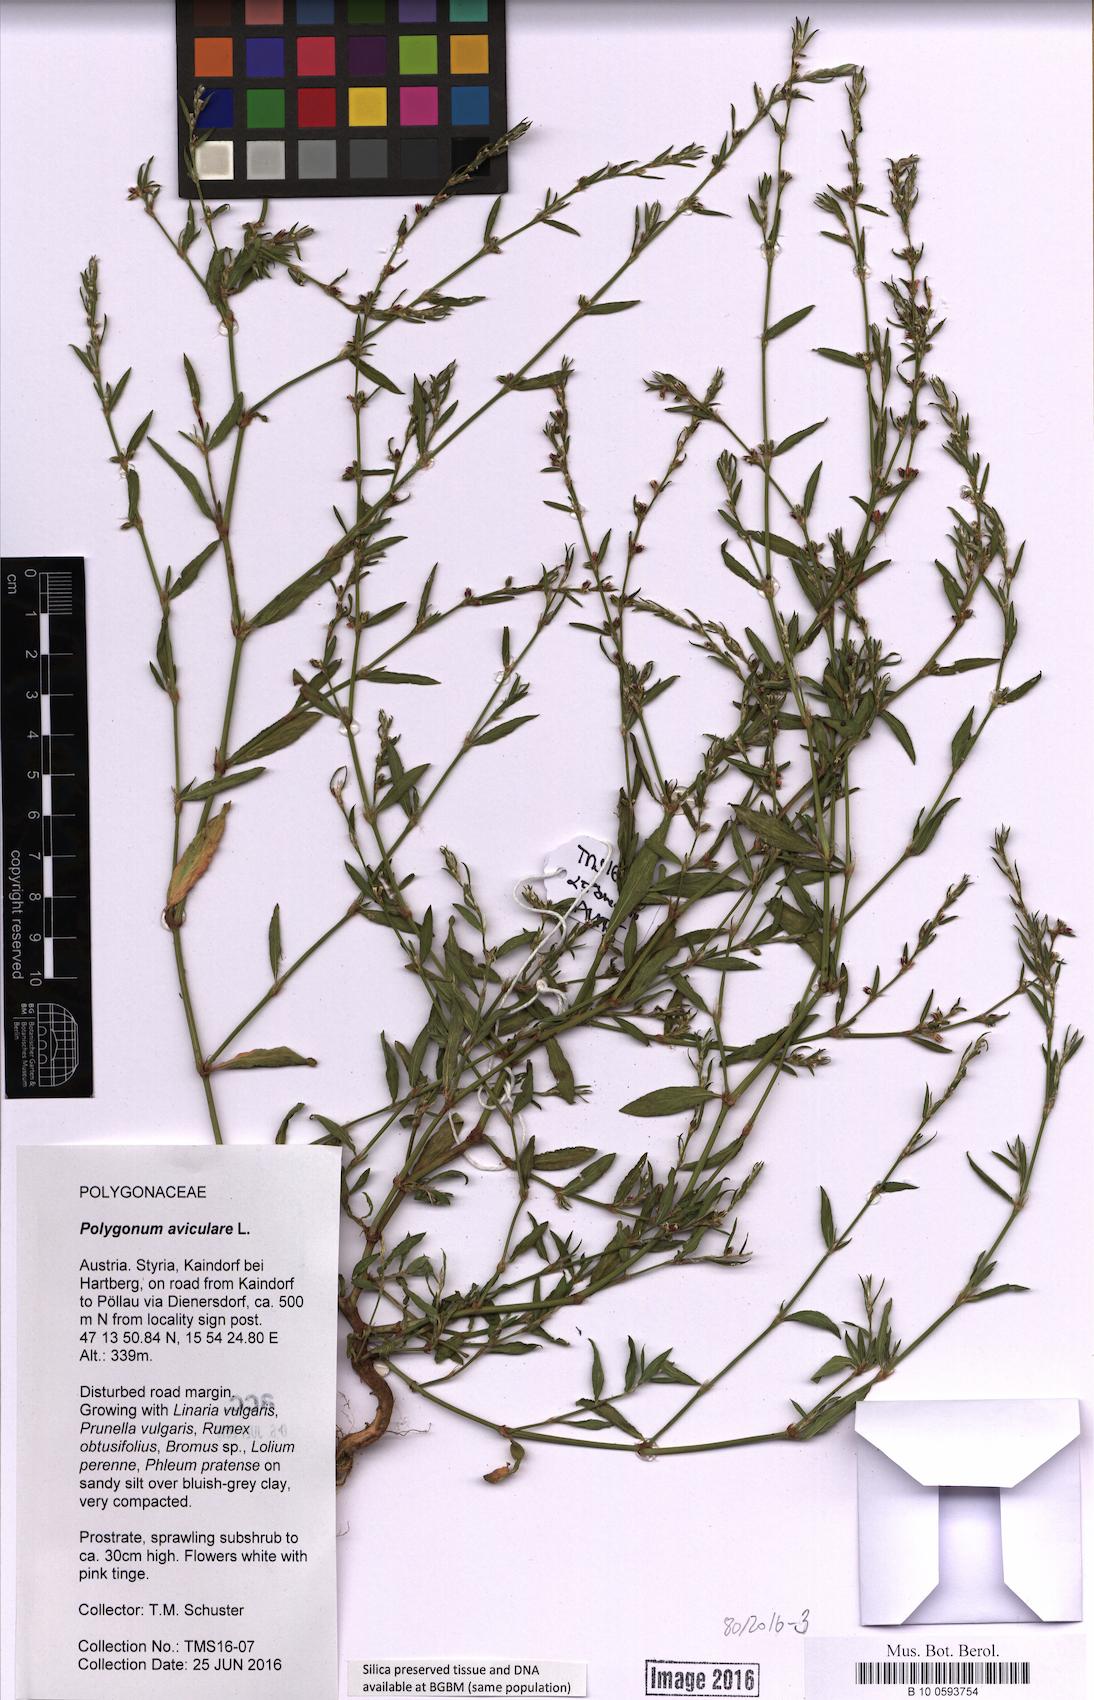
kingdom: Plantae
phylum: Tracheophyta
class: Magnoliopsida
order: Caryophyllales
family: Polygonaceae
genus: Polygonum
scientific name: Polygonum aviculare
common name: Prostrate knotweed
